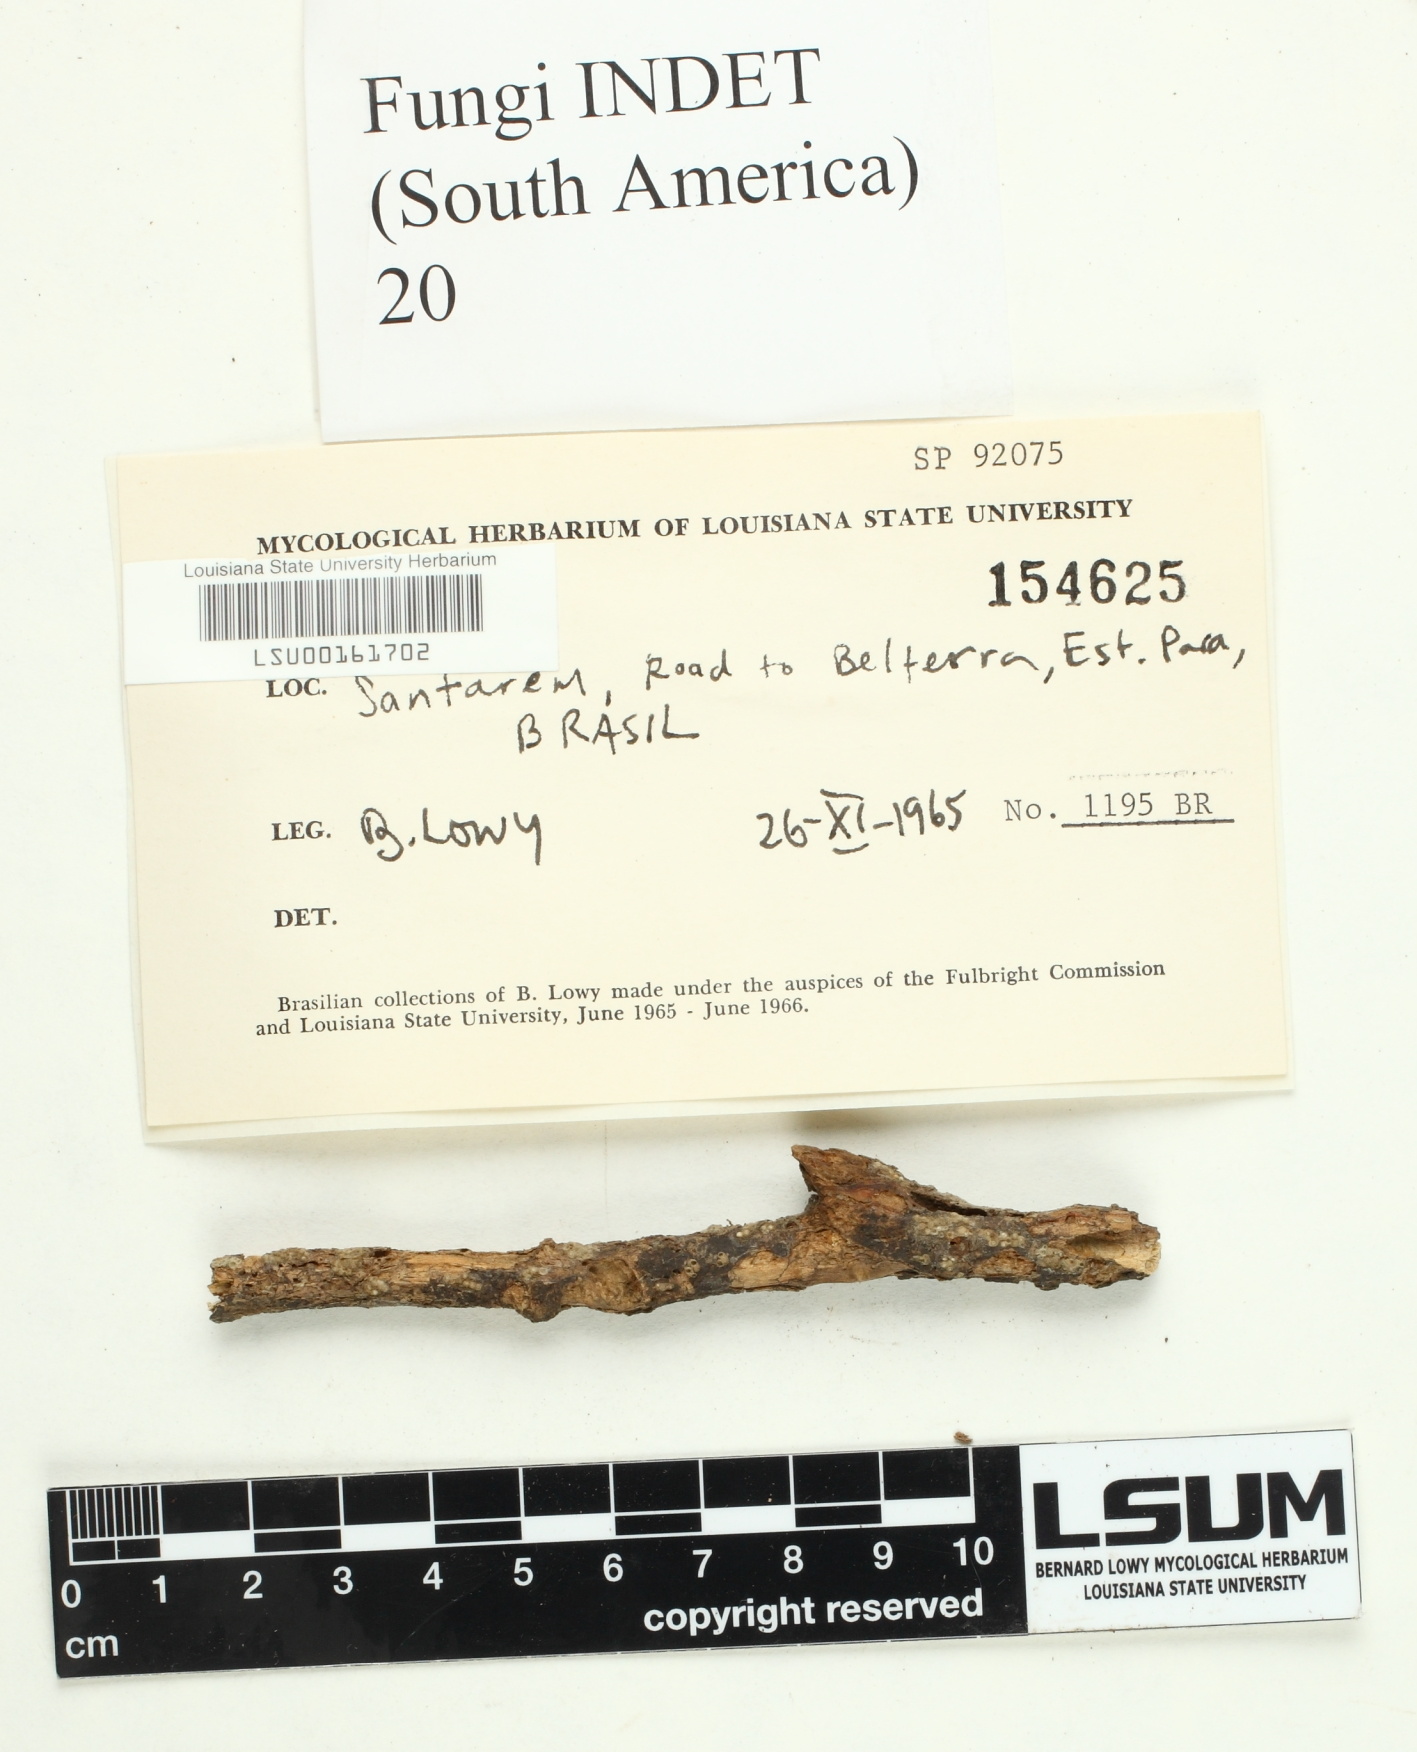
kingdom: Fungi
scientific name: Fungi
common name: Fungi
